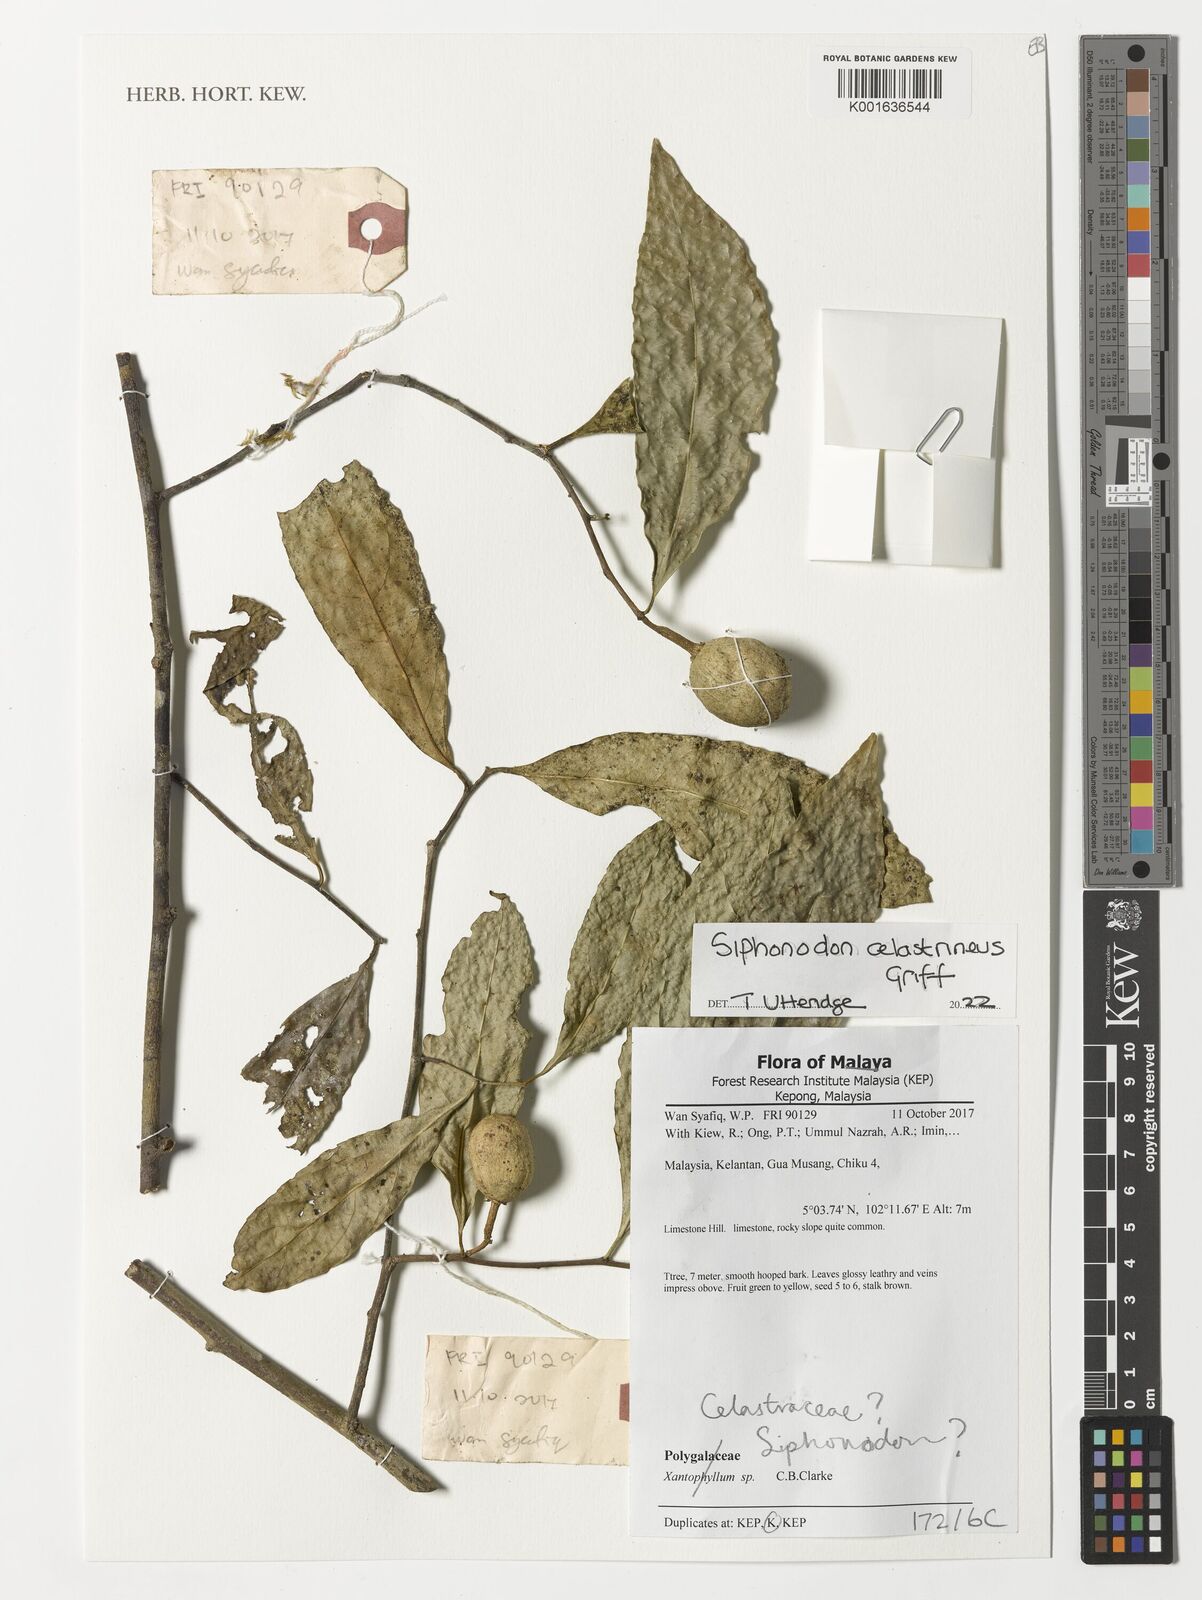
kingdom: Plantae
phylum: Tracheophyta
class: Magnoliopsida
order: Celastrales
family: Celastraceae
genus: Siphonodon
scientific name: Siphonodon celastrineus
